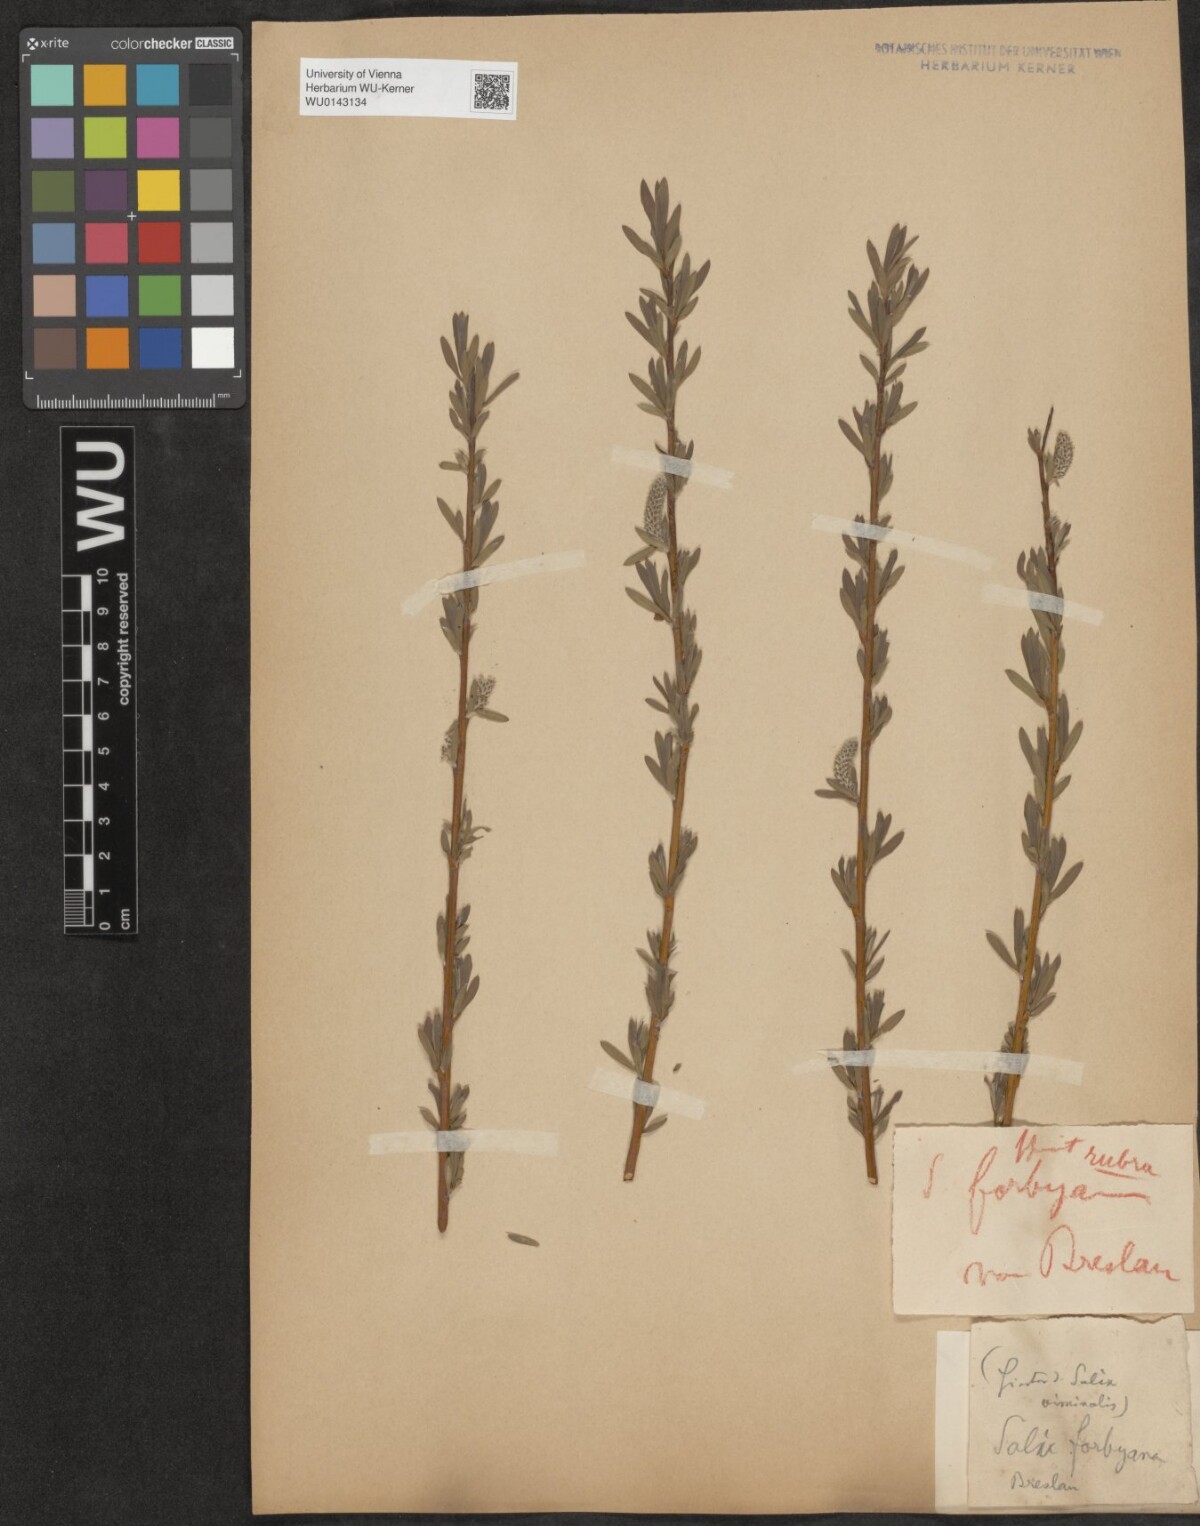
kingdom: Plantae
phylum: Tracheophyta
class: Magnoliopsida
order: Malpighiales
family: Salicaceae
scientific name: Salicaceae
